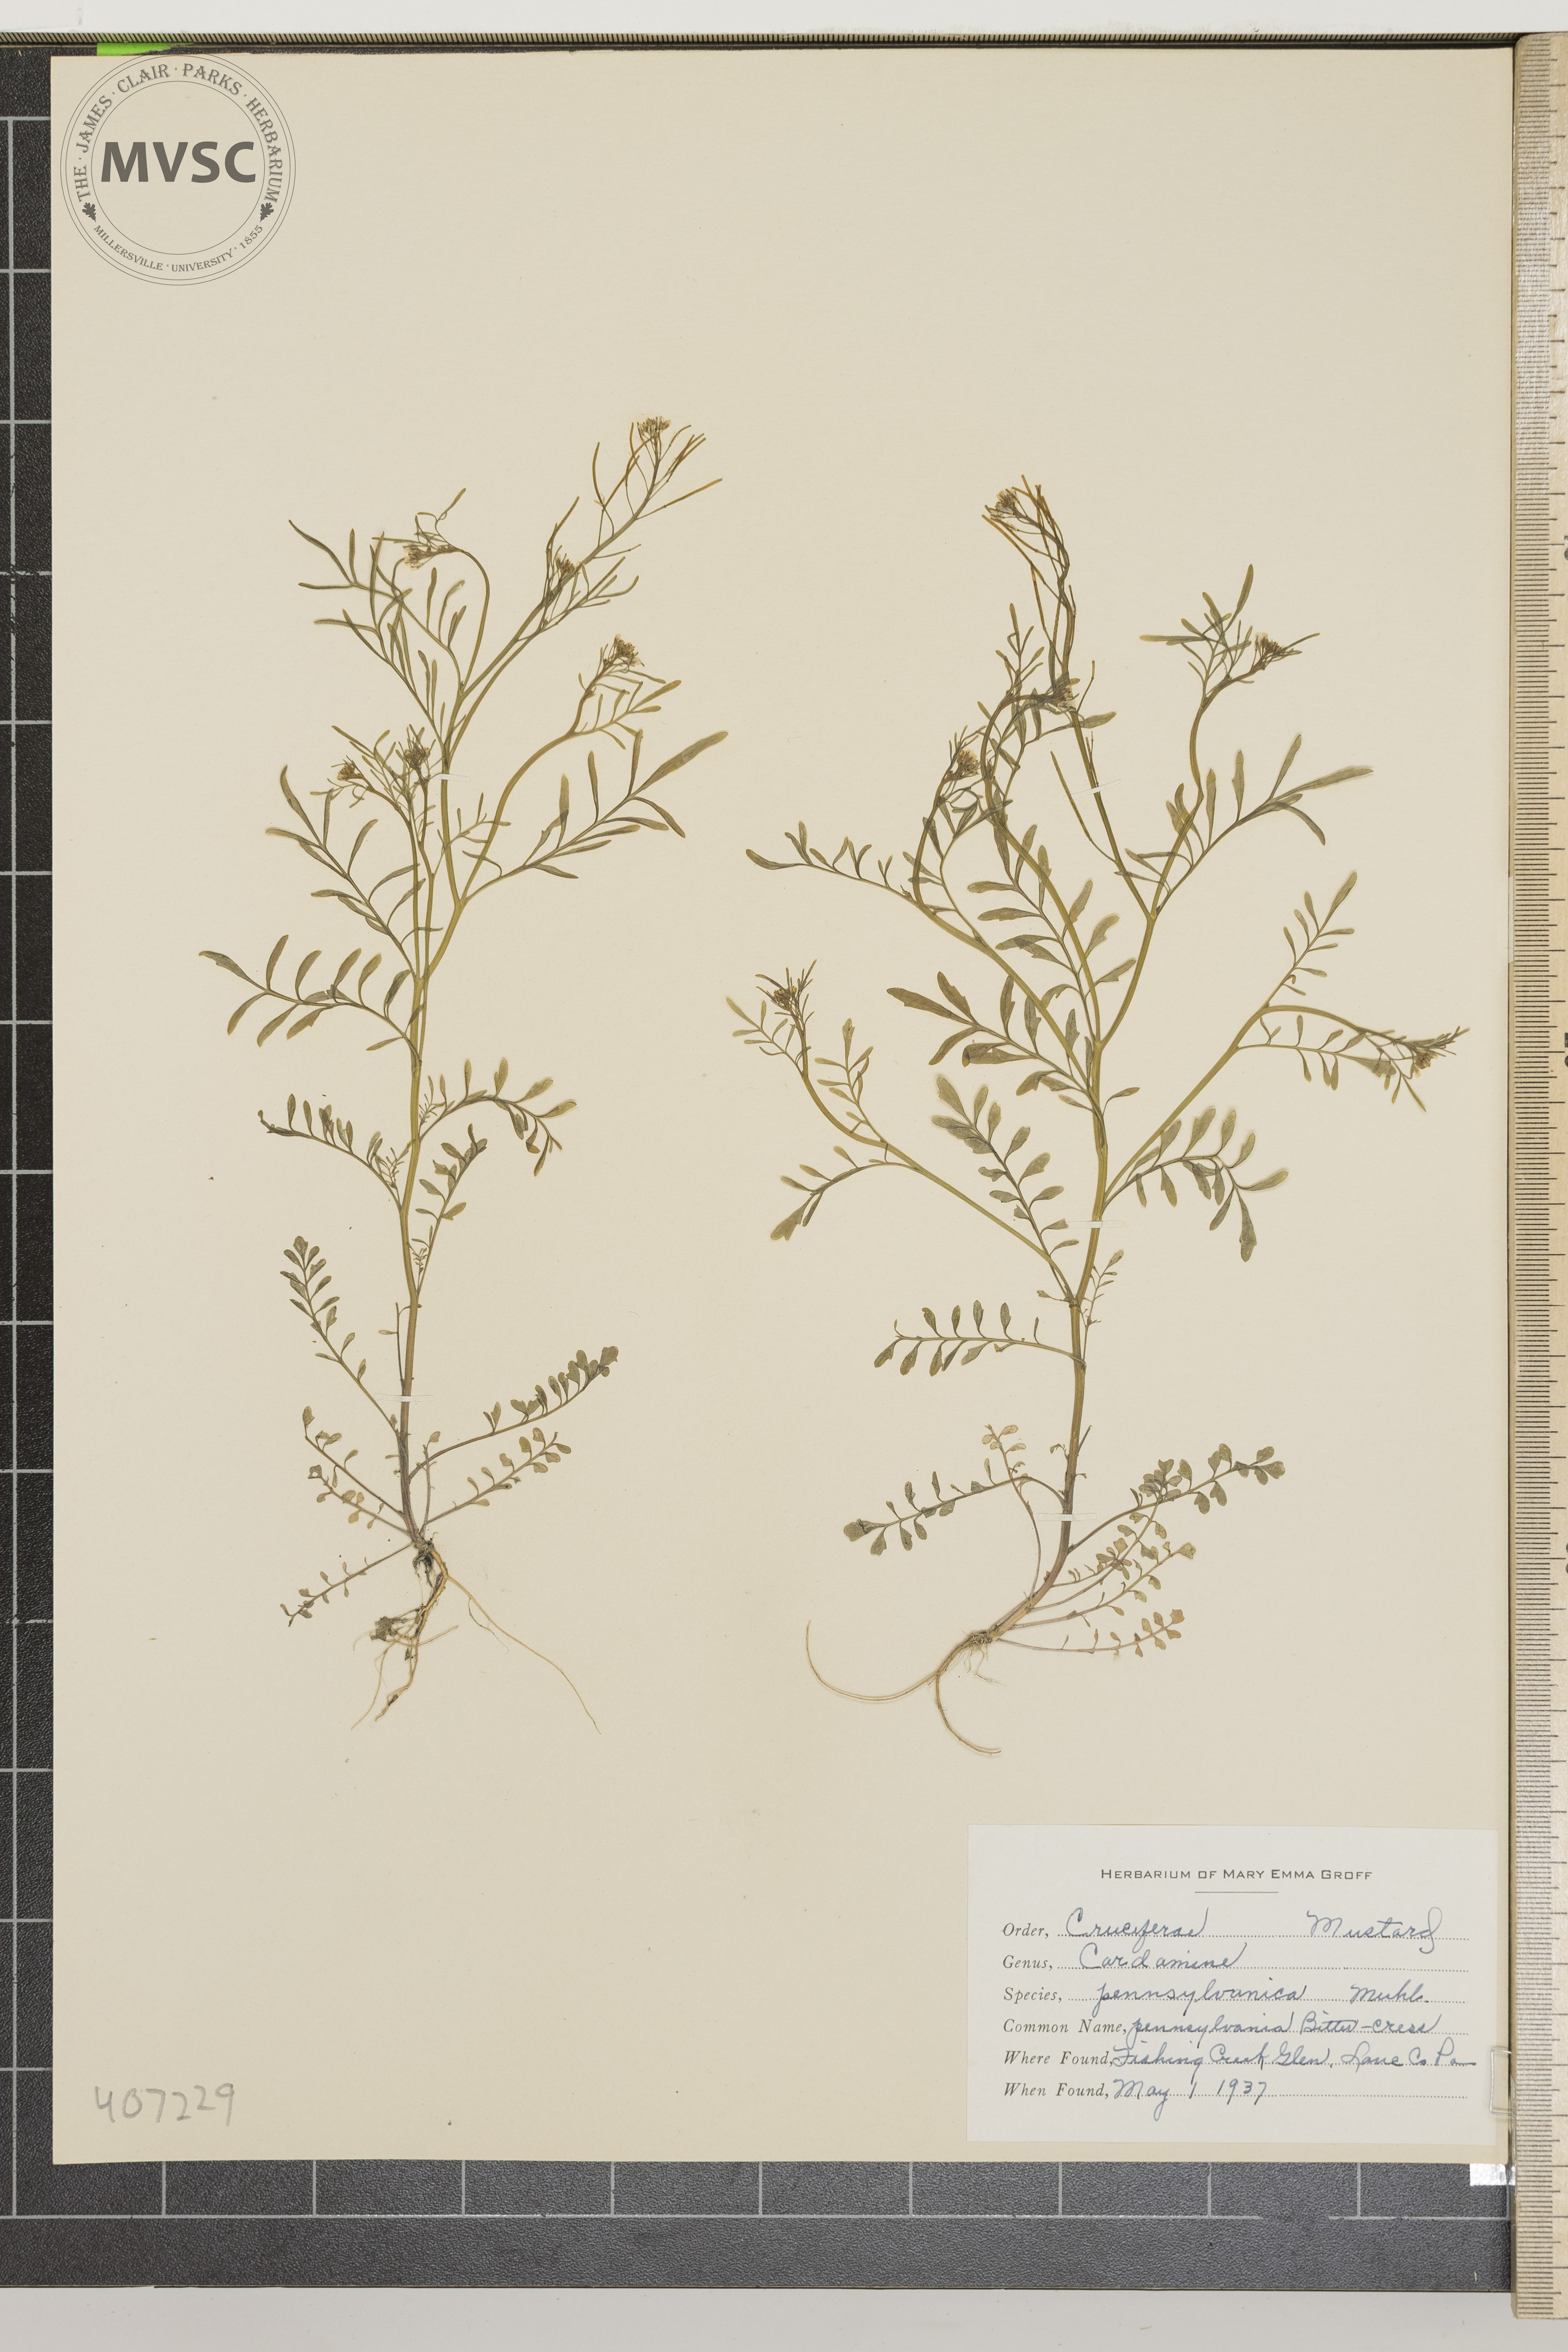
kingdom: Plantae
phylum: Tracheophyta
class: Magnoliopsida
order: Brassicales
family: Brassicaceae
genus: Cardamine
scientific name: Cardamine pensylvanica
